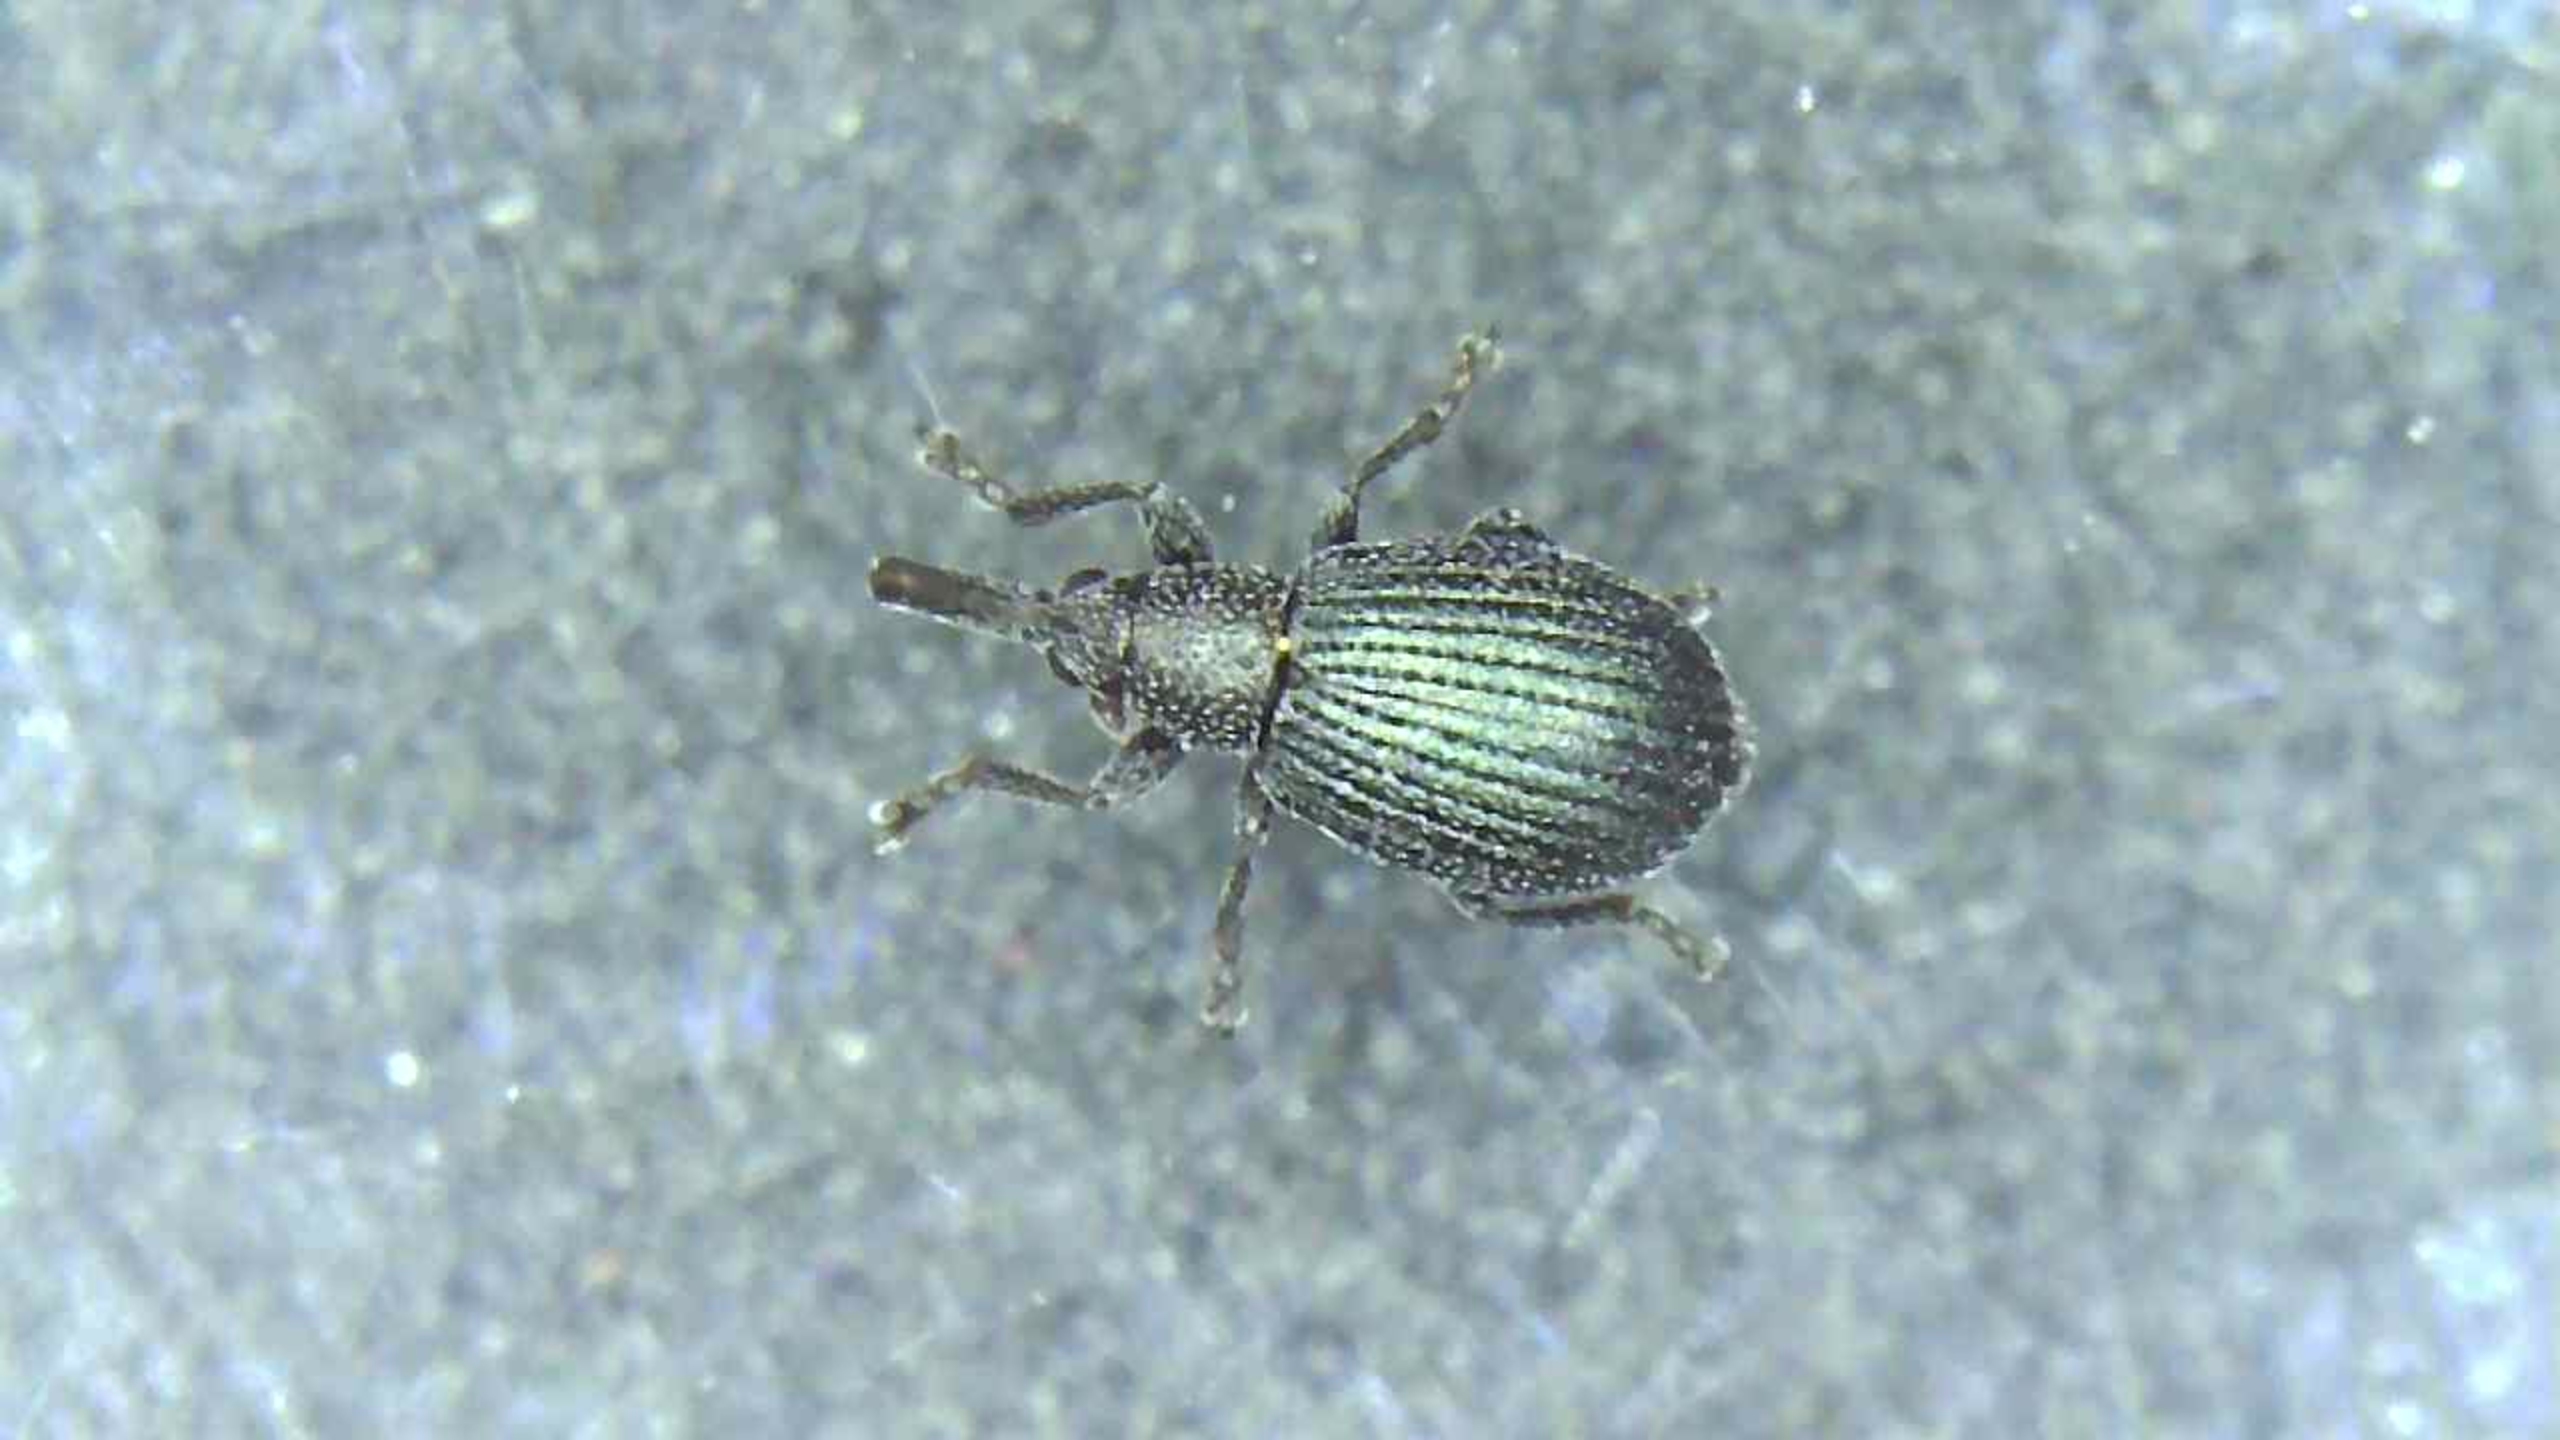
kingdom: Animalia
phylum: Arthropoda
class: Insecta
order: Coleoptera
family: Brentidae
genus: Perapion
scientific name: Perapion marchicum
